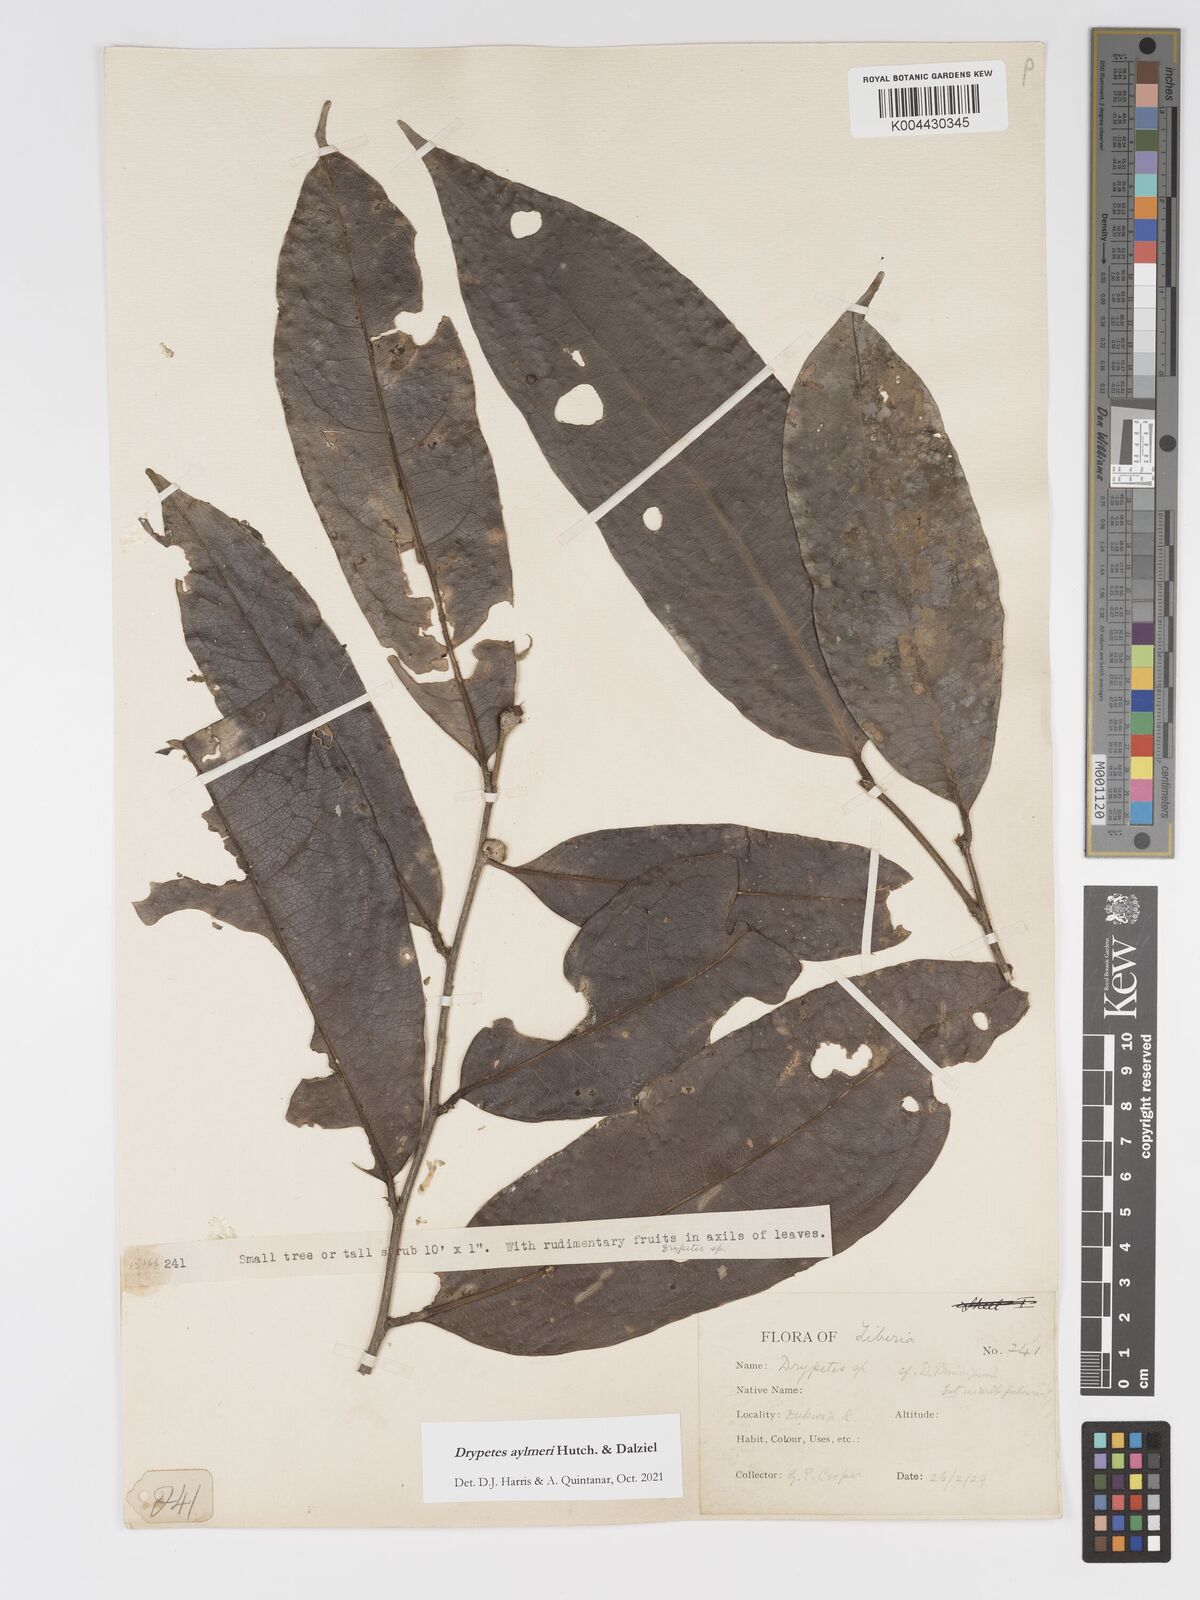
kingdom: Plantae
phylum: Tracheophyta
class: Magnoliopsida
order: Malpighiales
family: Putranjivaceae
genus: Drypetes
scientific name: Drypetes aylmeri
